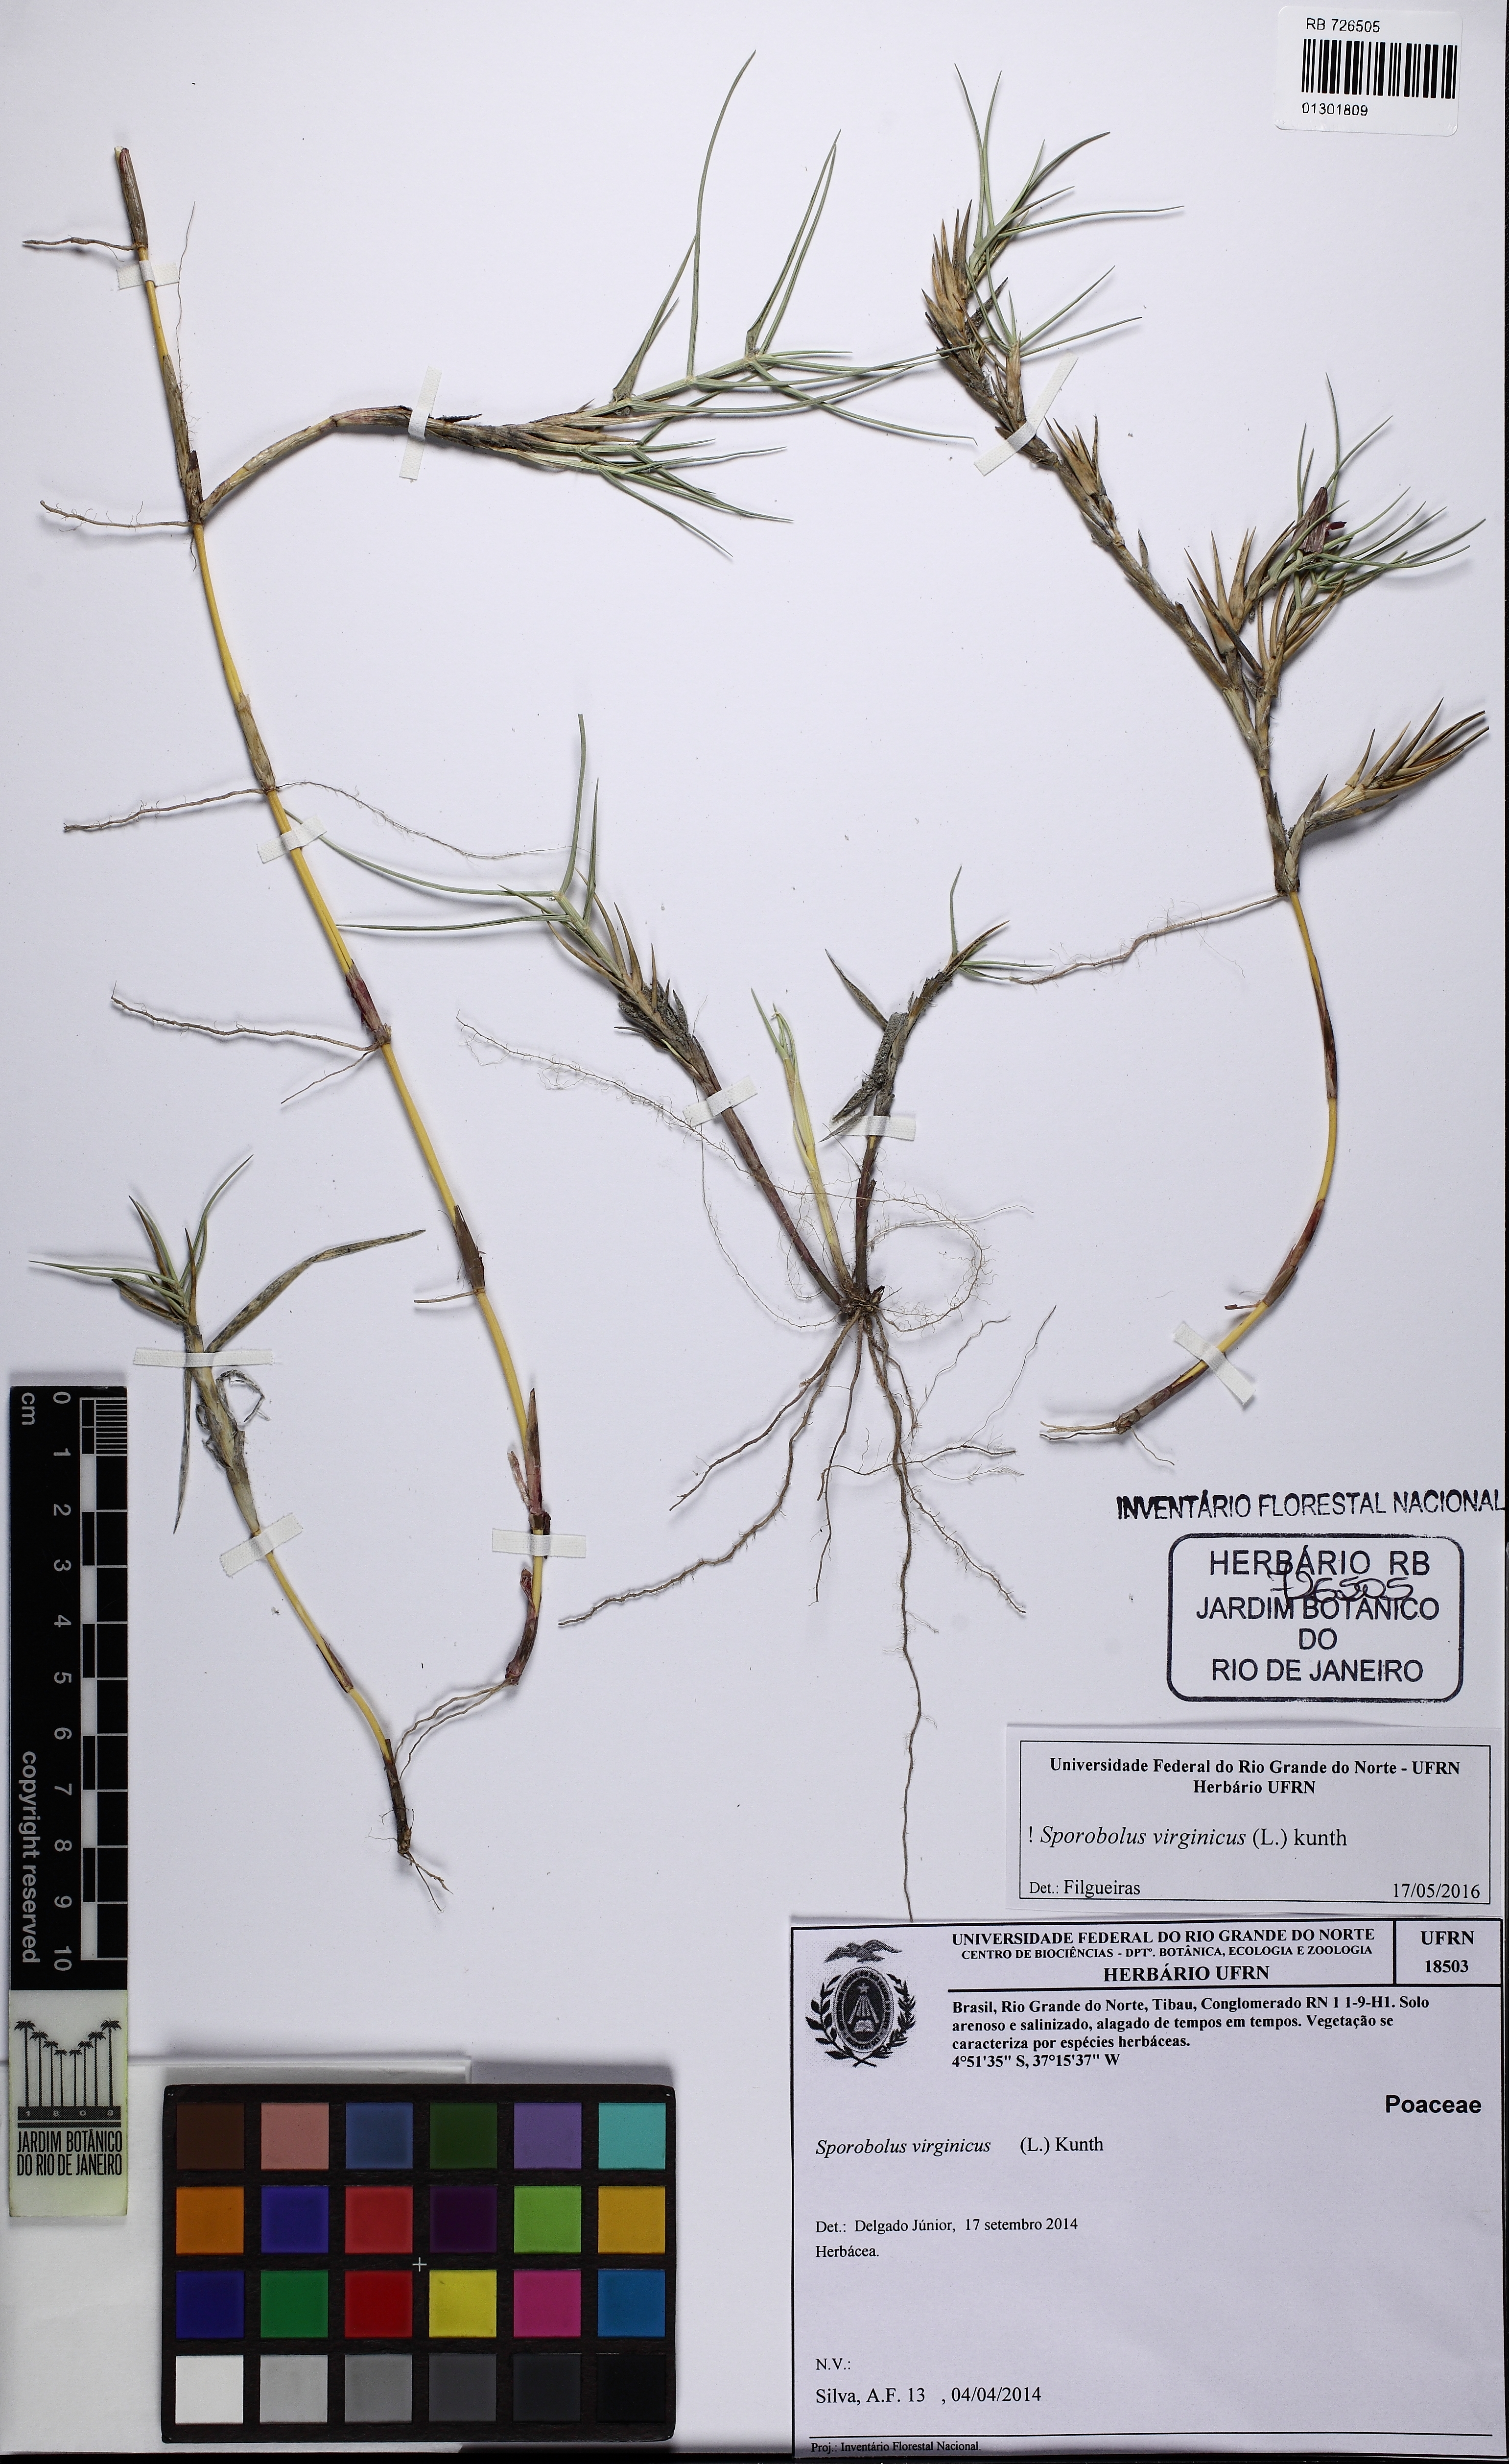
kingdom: Plantae
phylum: Tracheophyta
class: Liliopsida
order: Poales
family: Poaceae
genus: Sporobolus
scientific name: Sporobolus virginicus
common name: Beach dropseed
